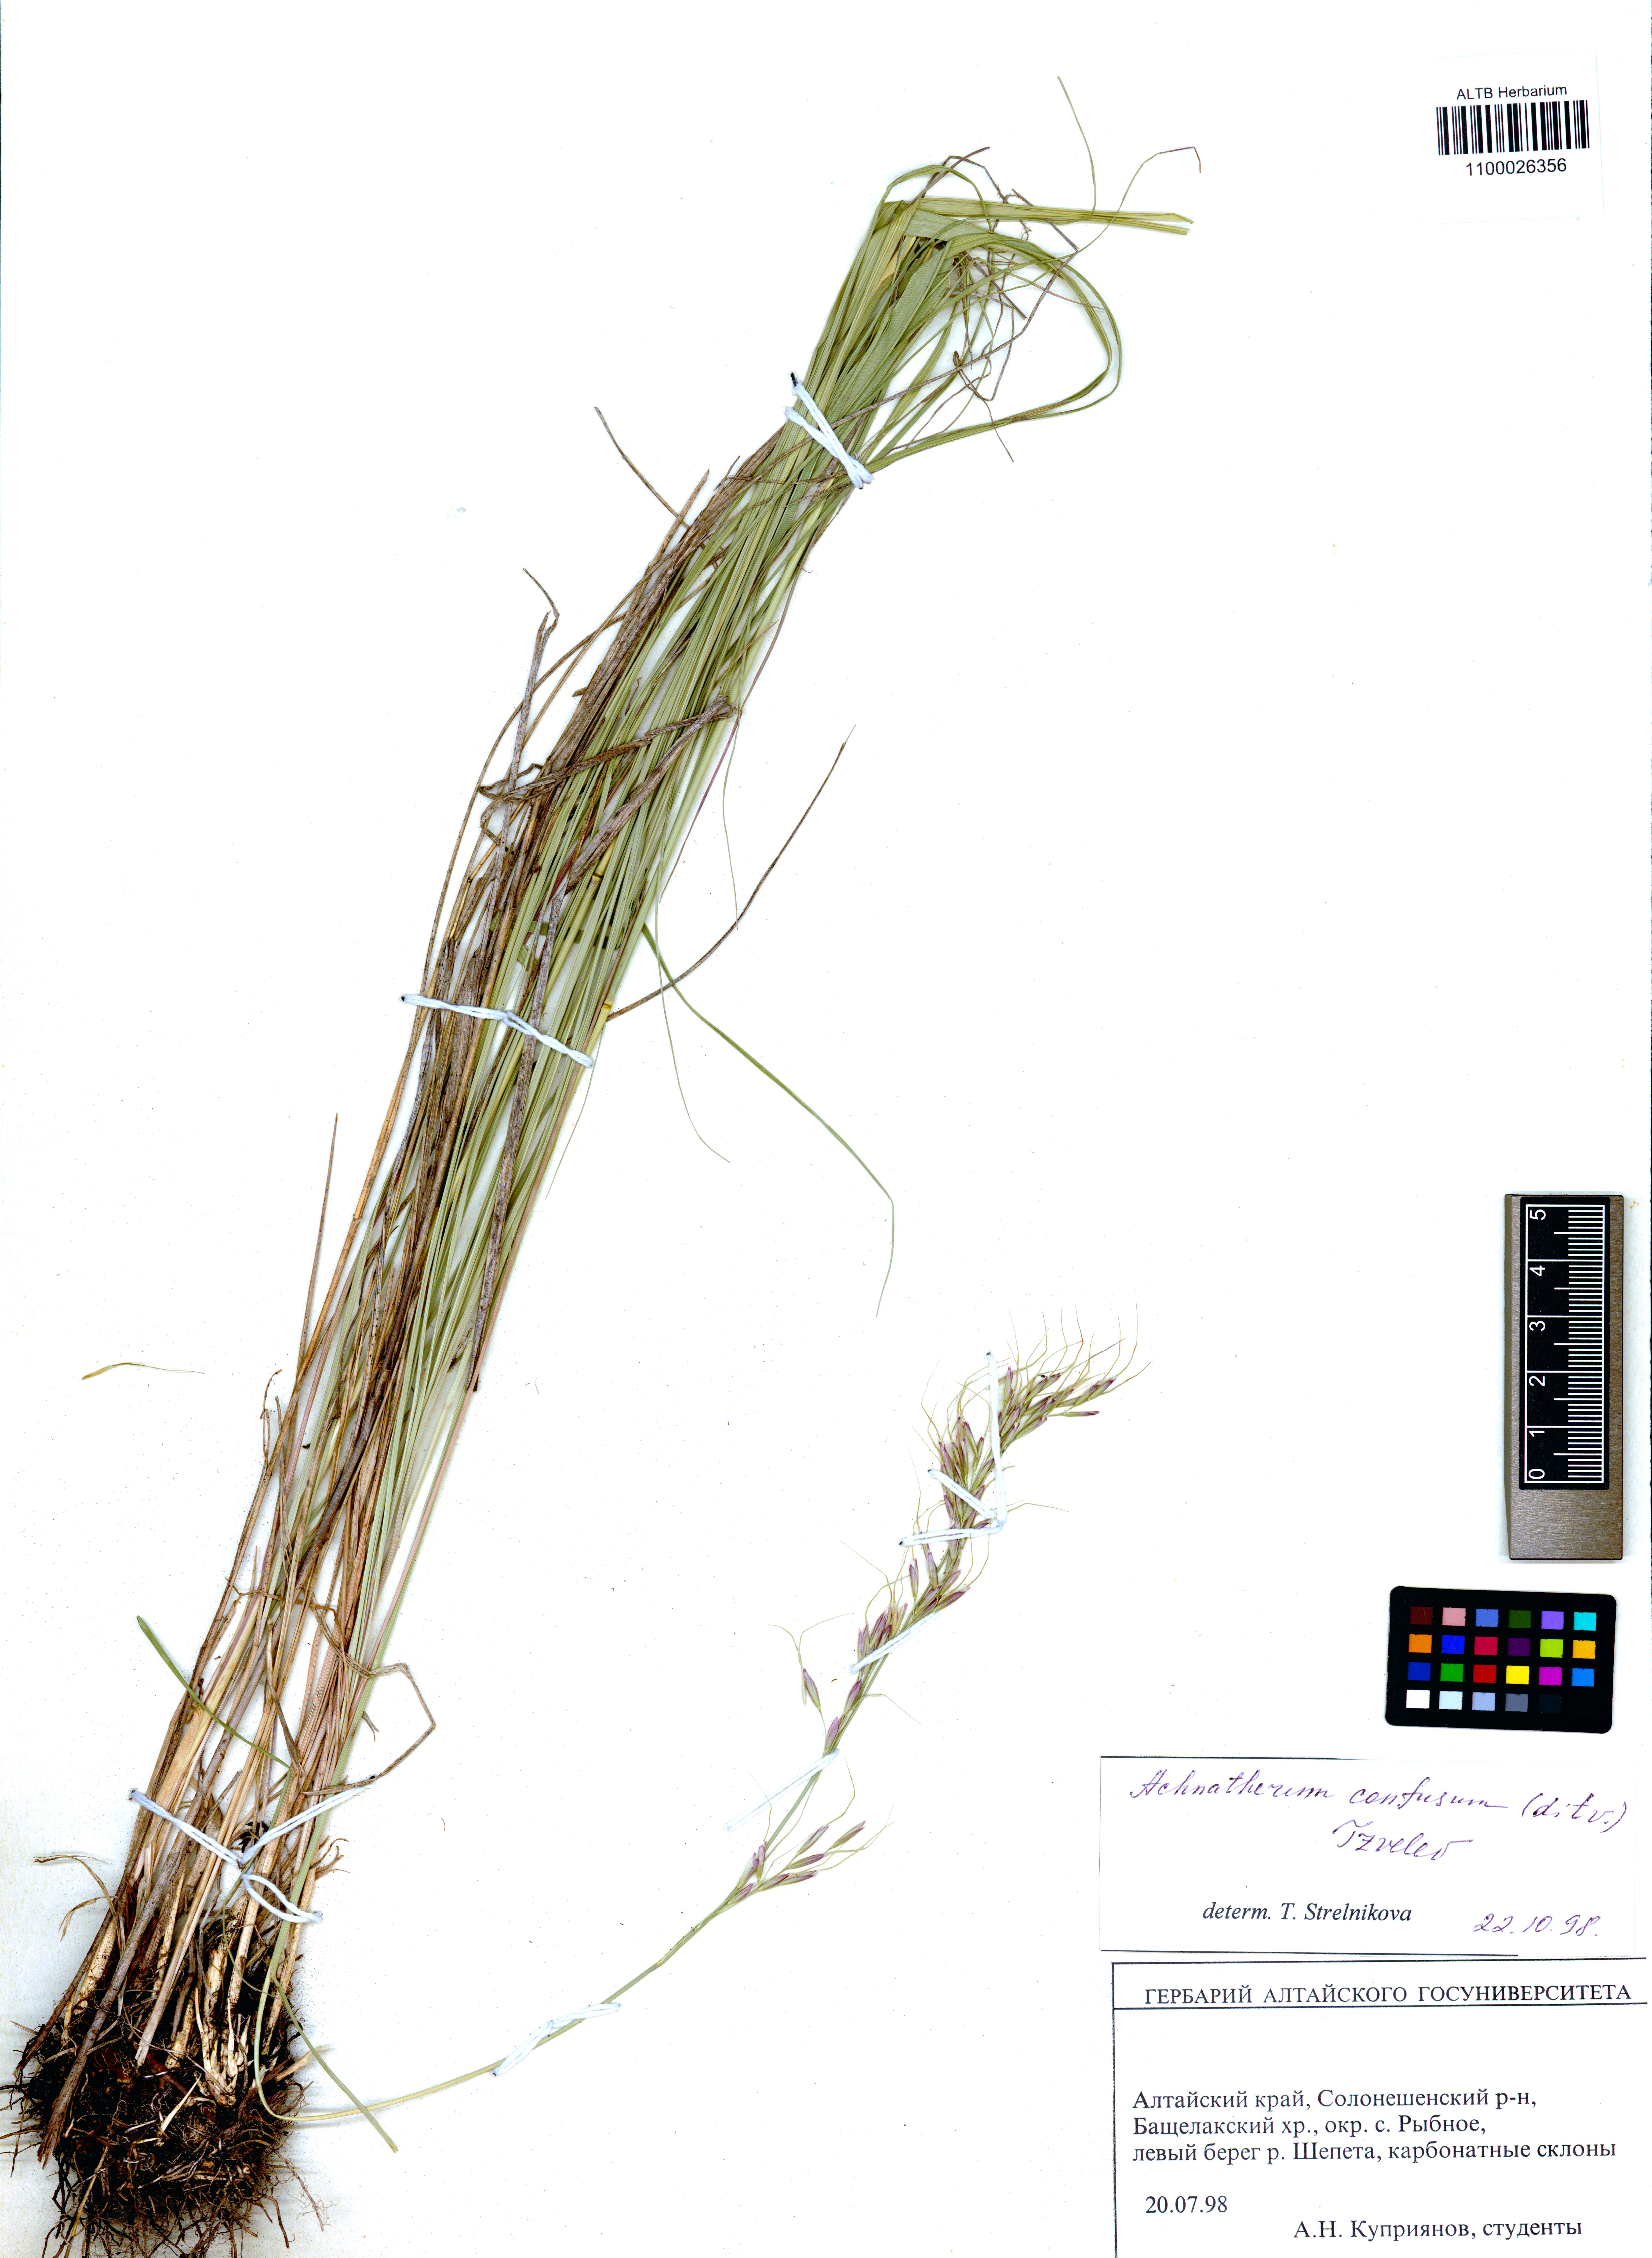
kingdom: Plantae
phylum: Tracheophyta
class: Liliopsida
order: Poales
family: Poaceae
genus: Achnatherum
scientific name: Achnatherum confusum
